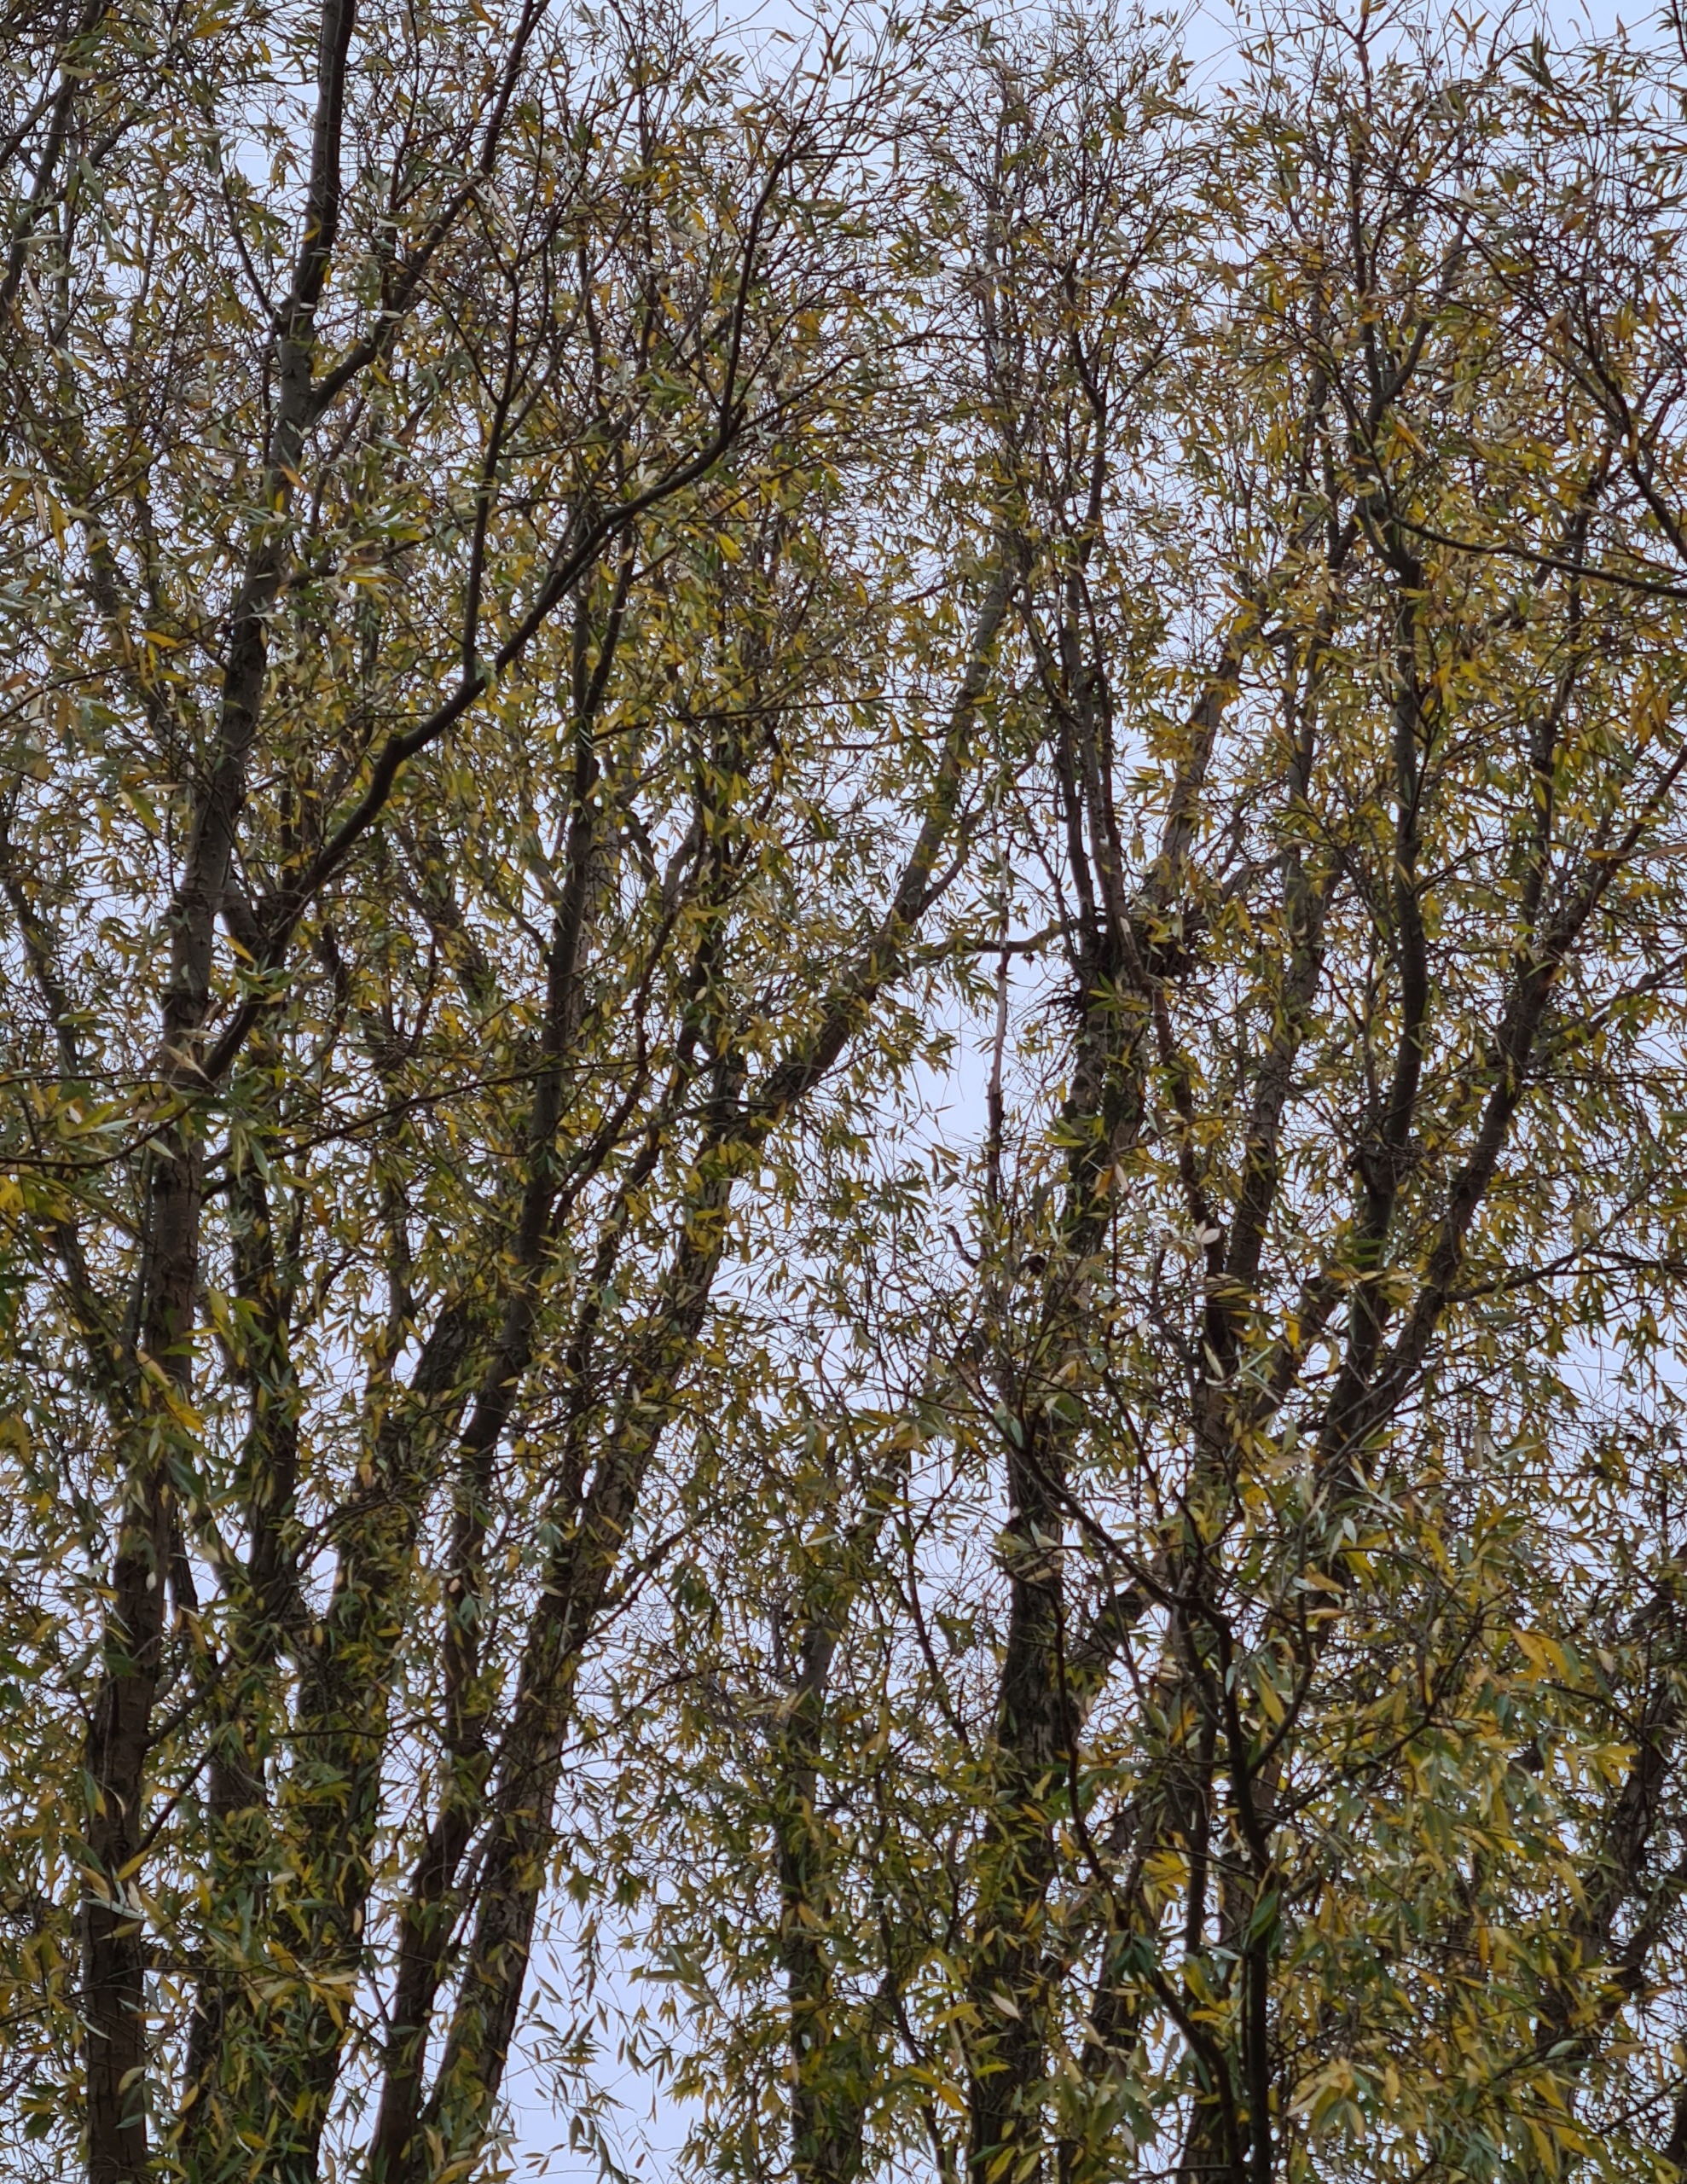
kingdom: Animalia
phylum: Chordata
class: Aves
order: Passeriformes
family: Phylloscopidae
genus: Phylloscopus
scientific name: Phylloscopus proregulus
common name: Fuglekongesanger
